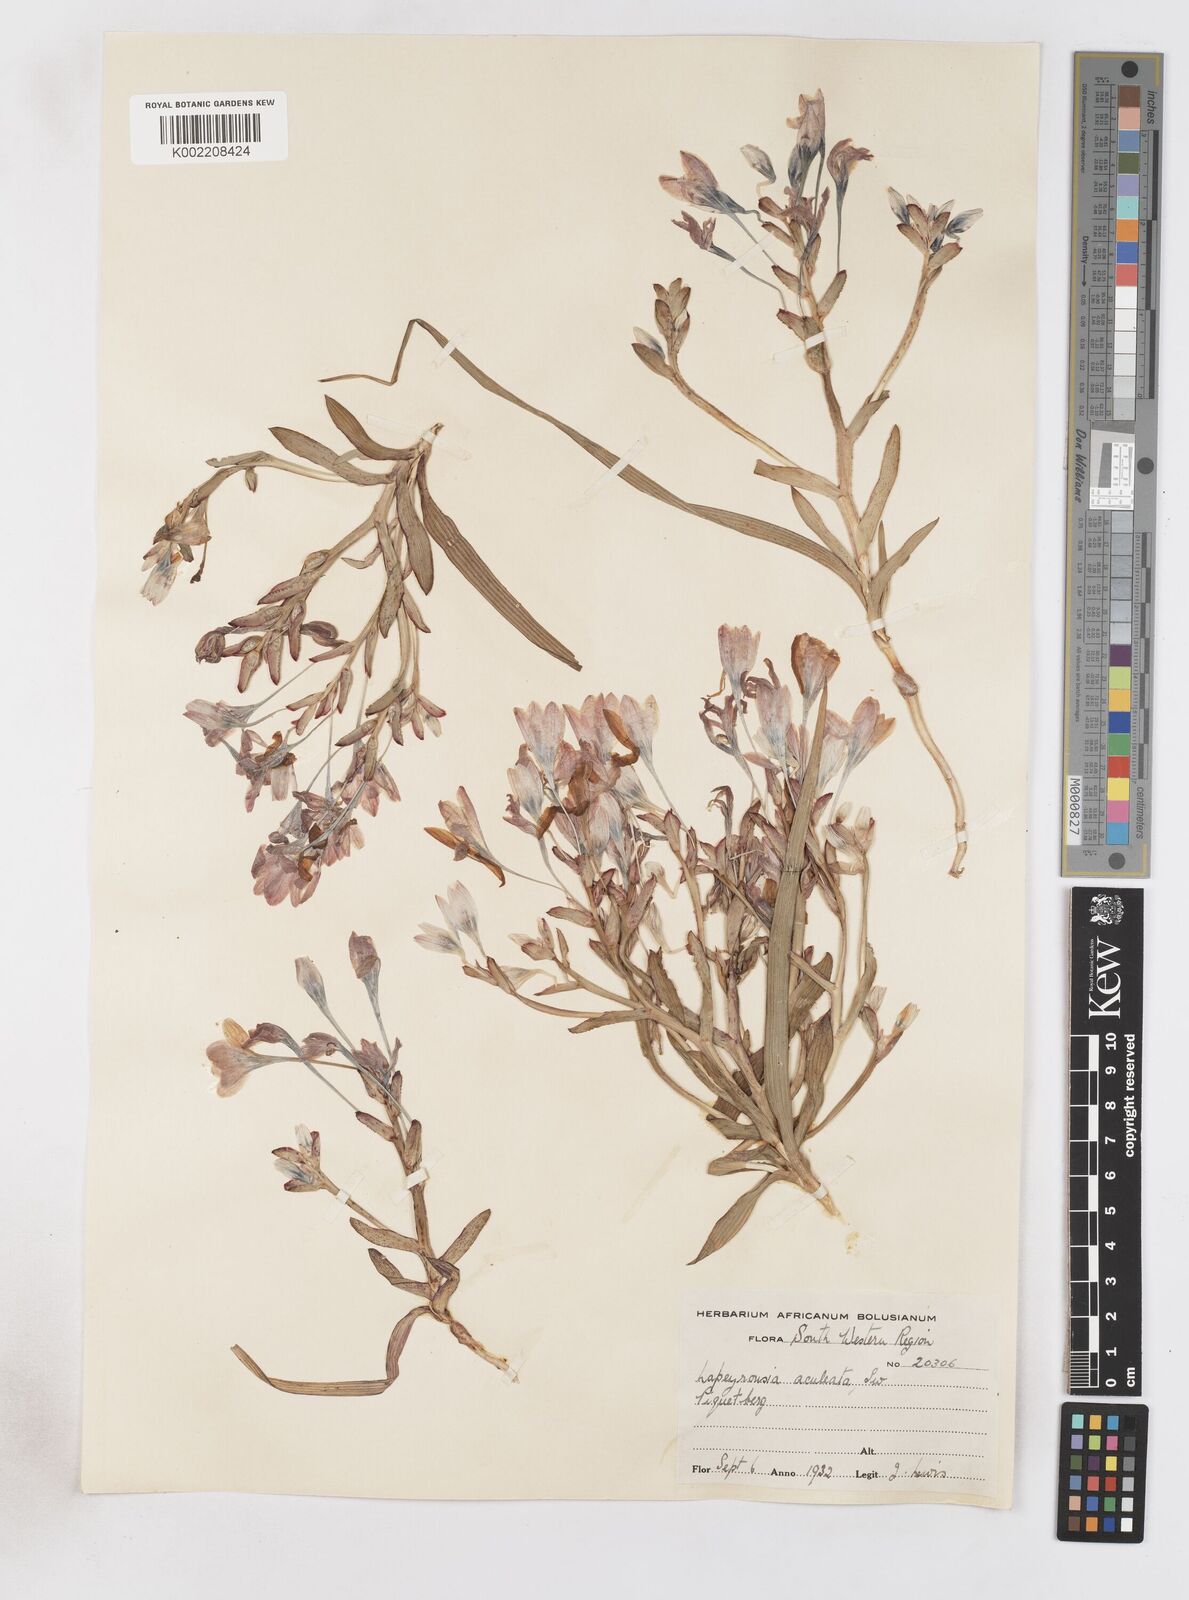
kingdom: Plantae
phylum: Tracheophyta
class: Liliopsida
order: Asparagales
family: Iridaceae
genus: Lapeirousia
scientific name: Lapeirousia fabricii
